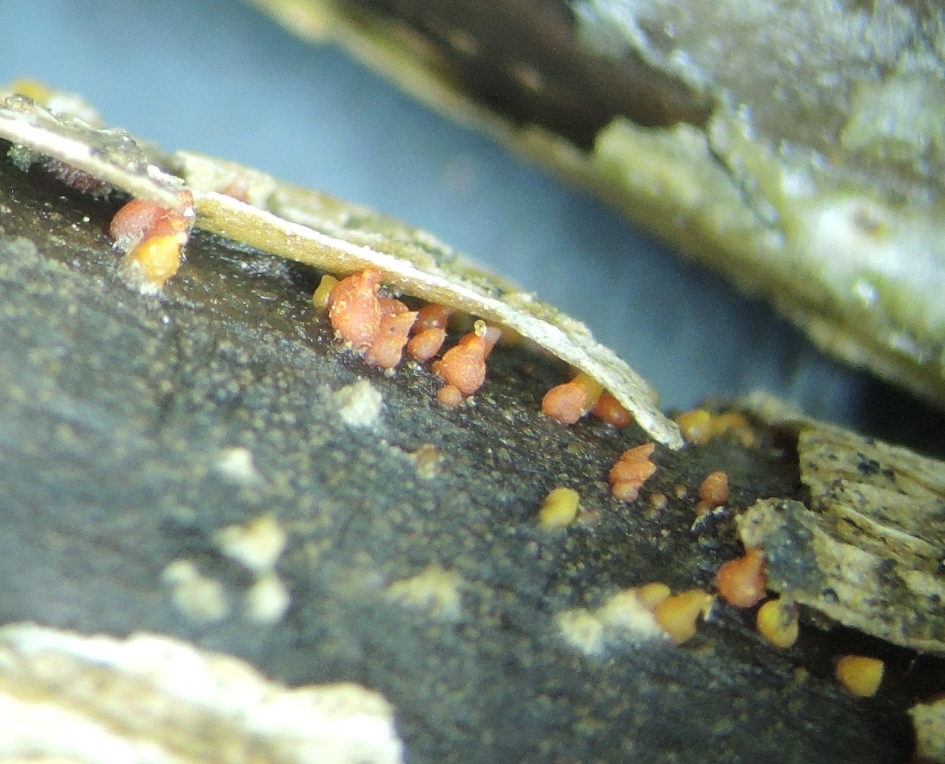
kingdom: Fungi
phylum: Ascomycota
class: Sordariomycetes
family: Thyridiaceae
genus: Thyronectria
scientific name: Thyronectria sinopica
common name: vedbend-cinnobersvamp
